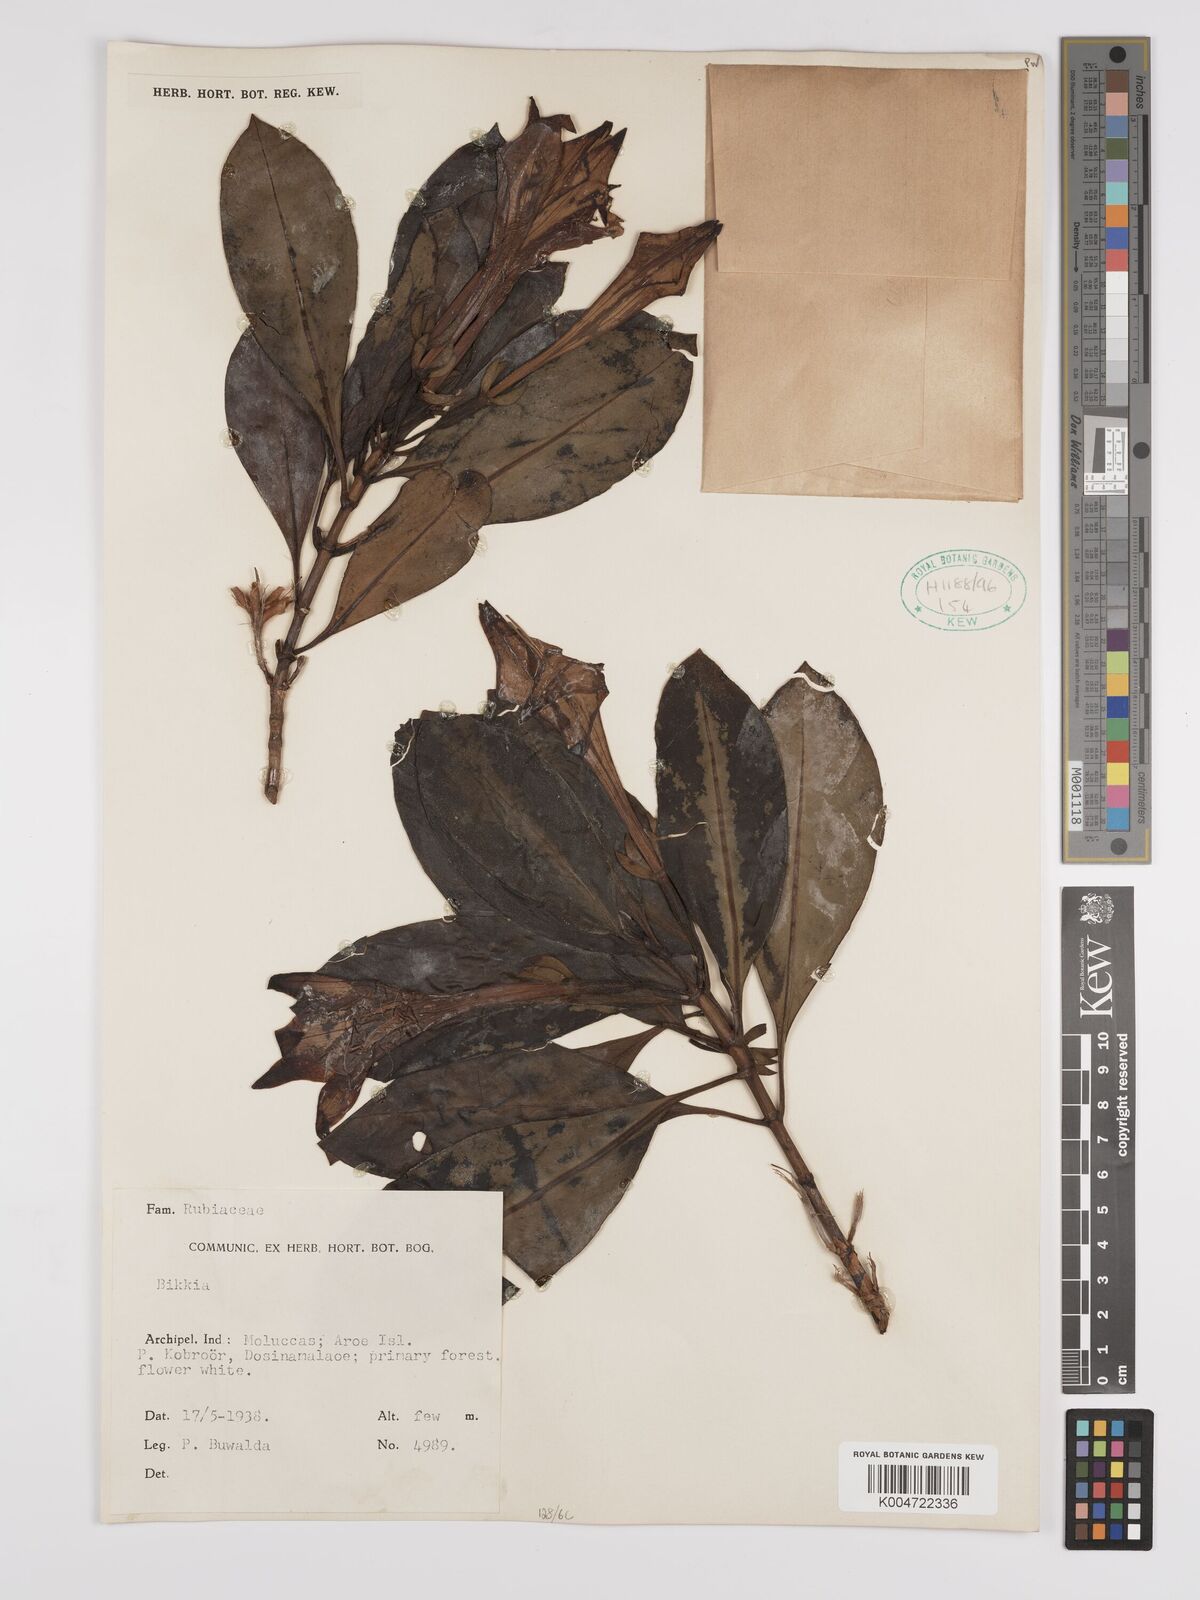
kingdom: Plantae
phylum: Tracheophyta
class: Magnoliopsida
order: Gentianales
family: Rubiaceae
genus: Bikkia
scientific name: Bikkia
